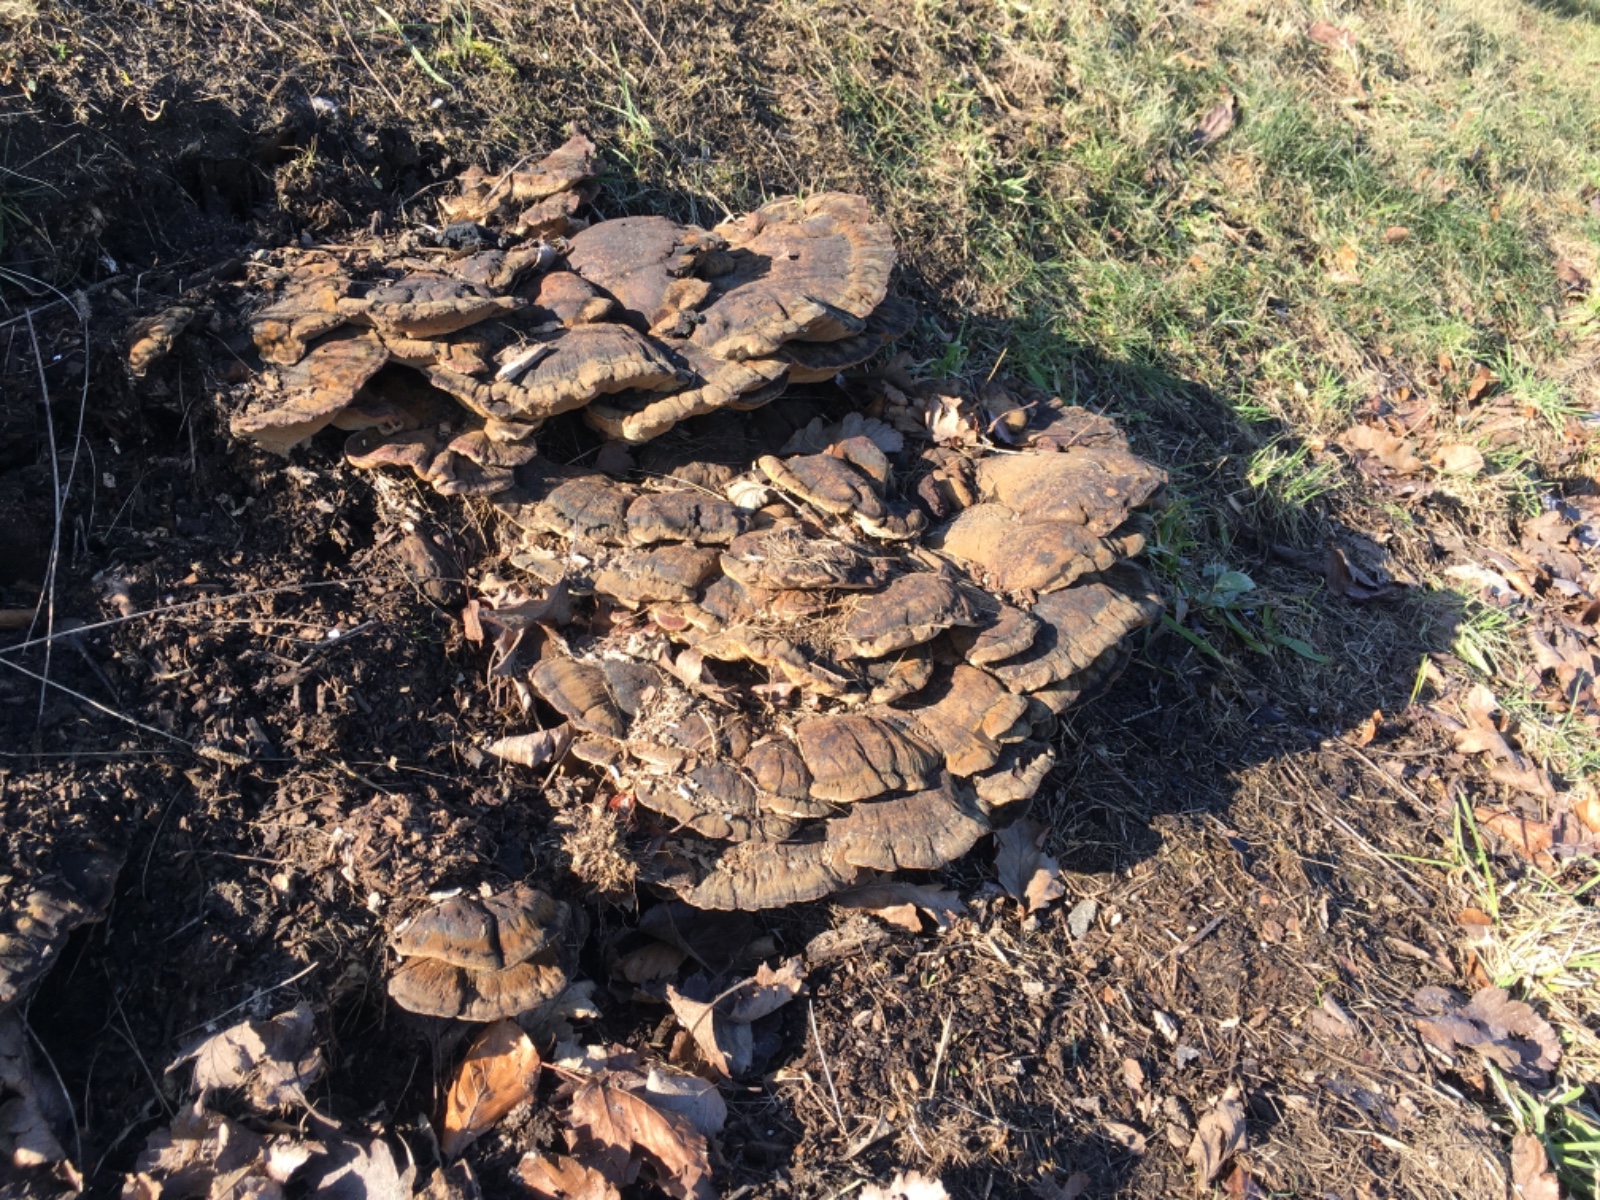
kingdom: Fungi
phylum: Basidiomycota
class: Agaricomycetes
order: Polyporales
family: Ischnodermataceae
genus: Ischnoderma
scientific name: Ischnoderma resinosum
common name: løv-tjæreporesvamp
